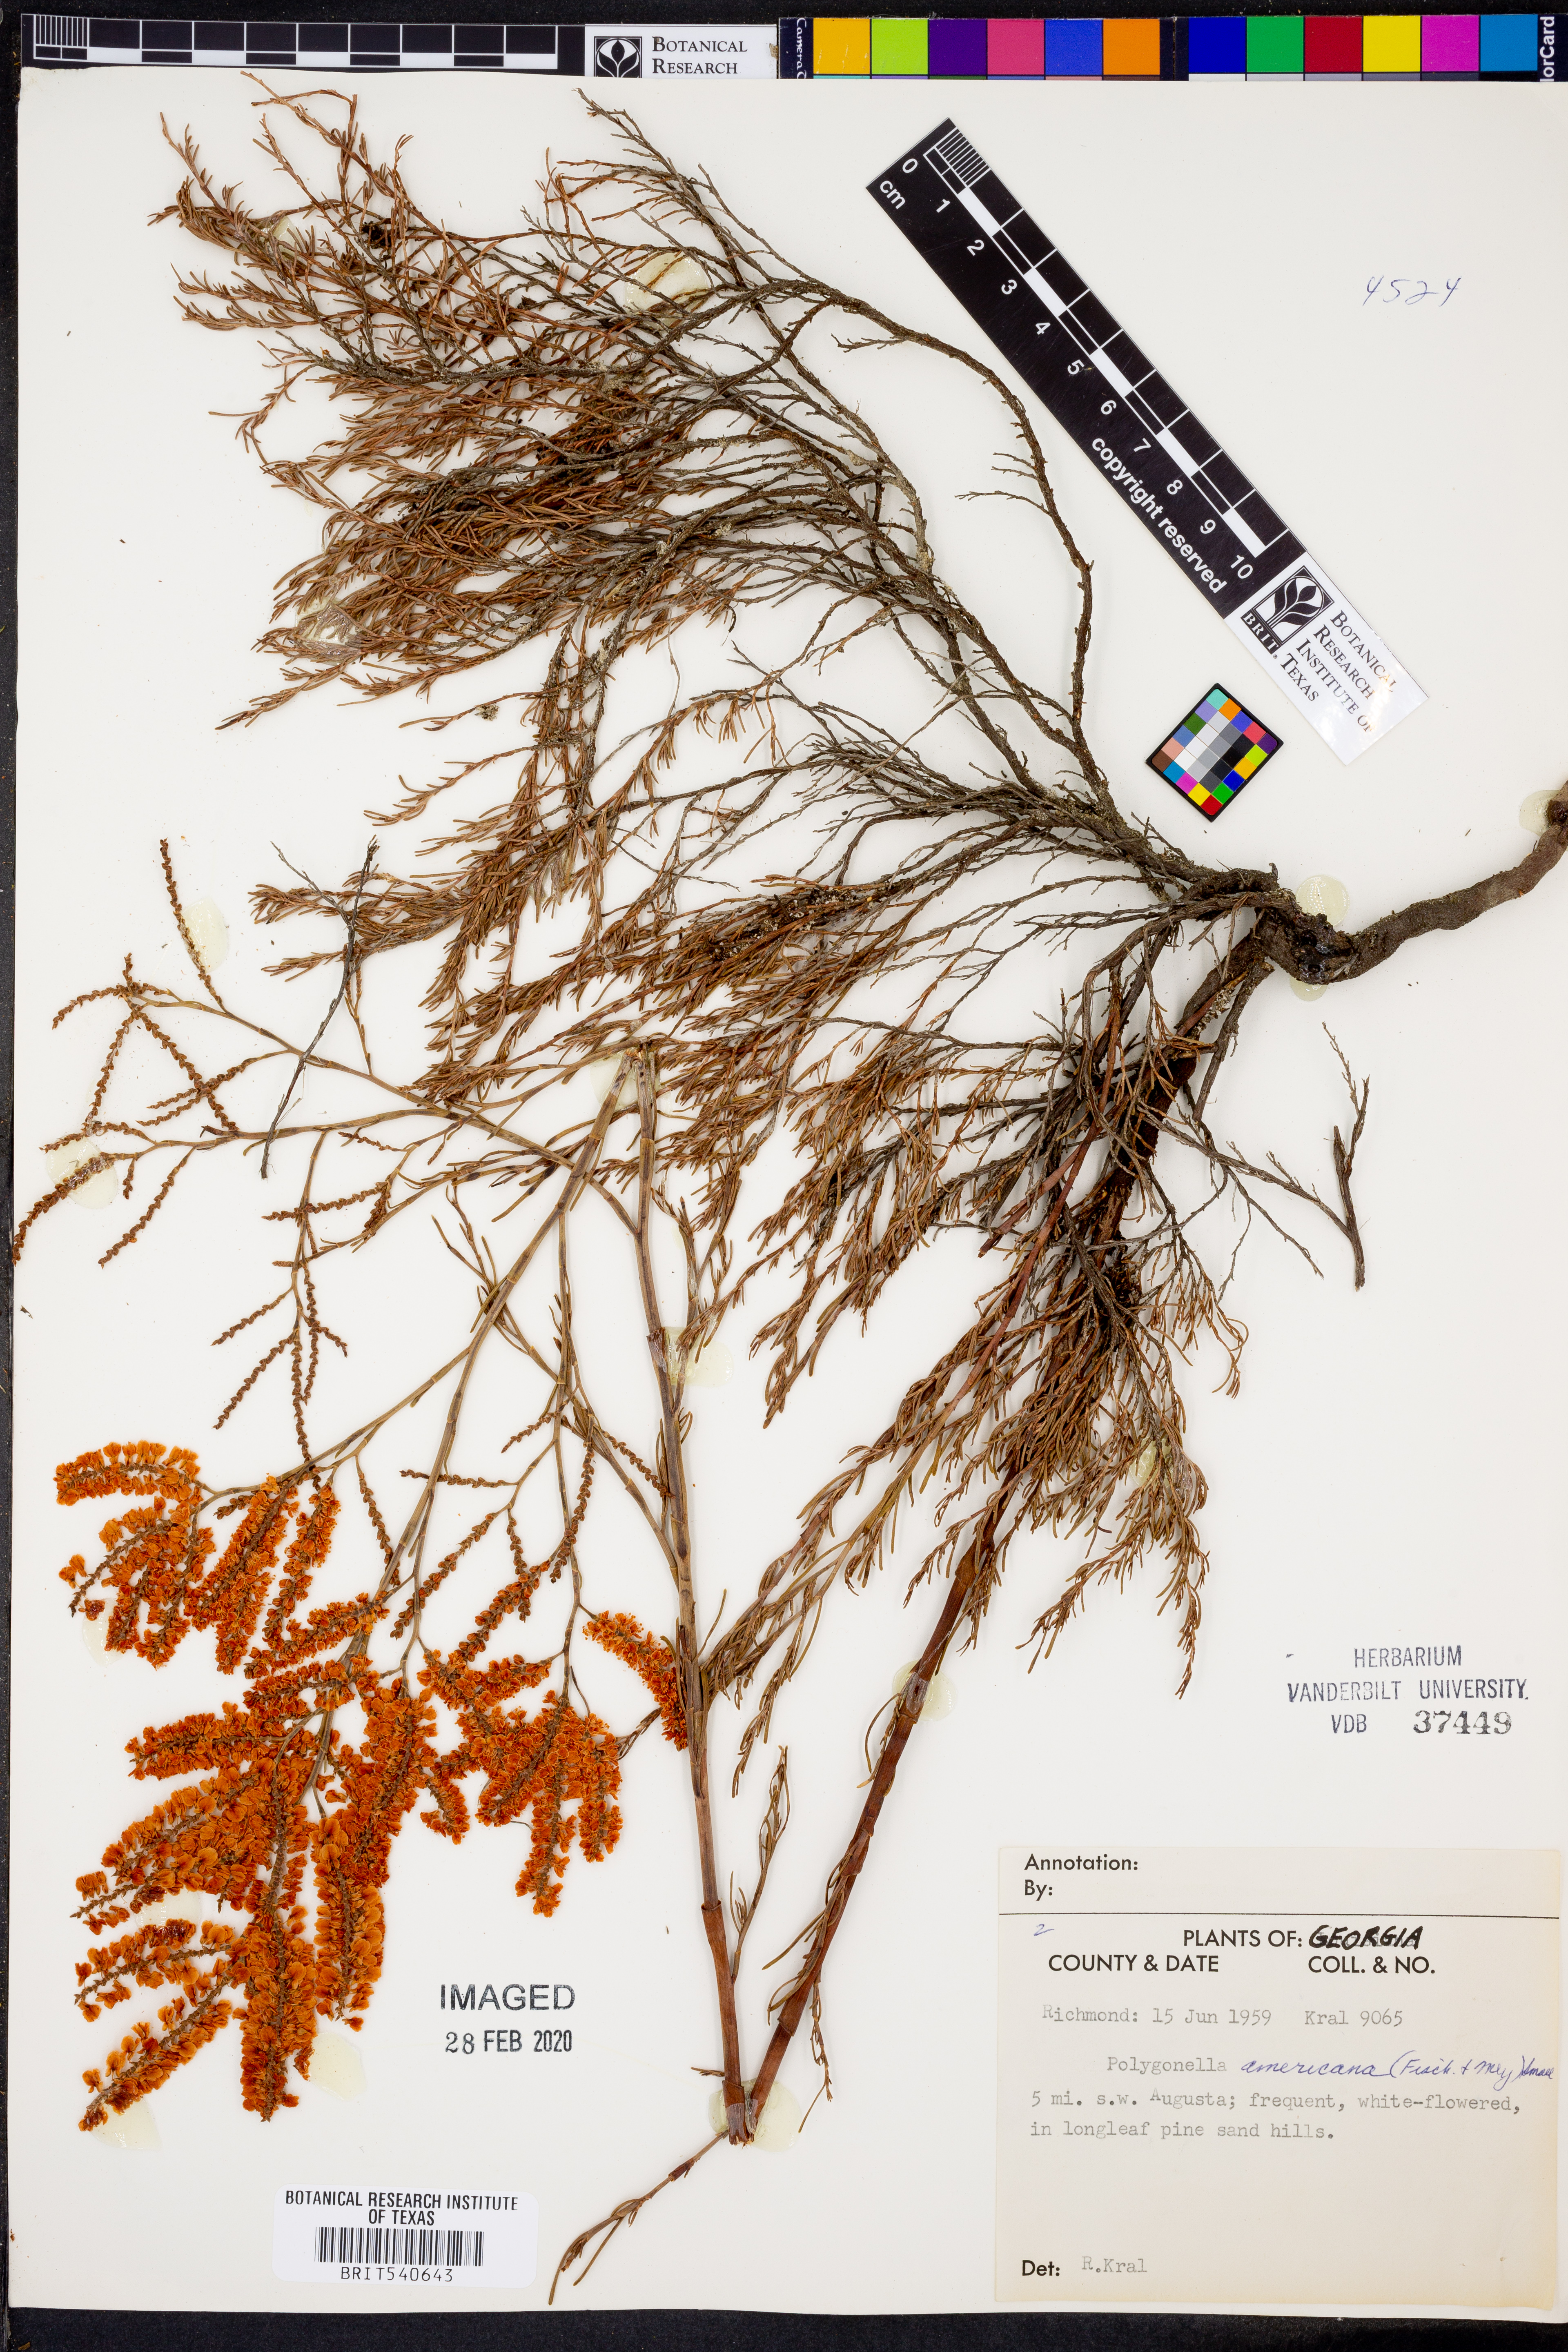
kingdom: Plantae
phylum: Tracheophyta
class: Magnoliopsida
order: Caryophyllales
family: Polygonaceae
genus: Polygonella
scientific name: Polygonella americana
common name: Southern jointweed
